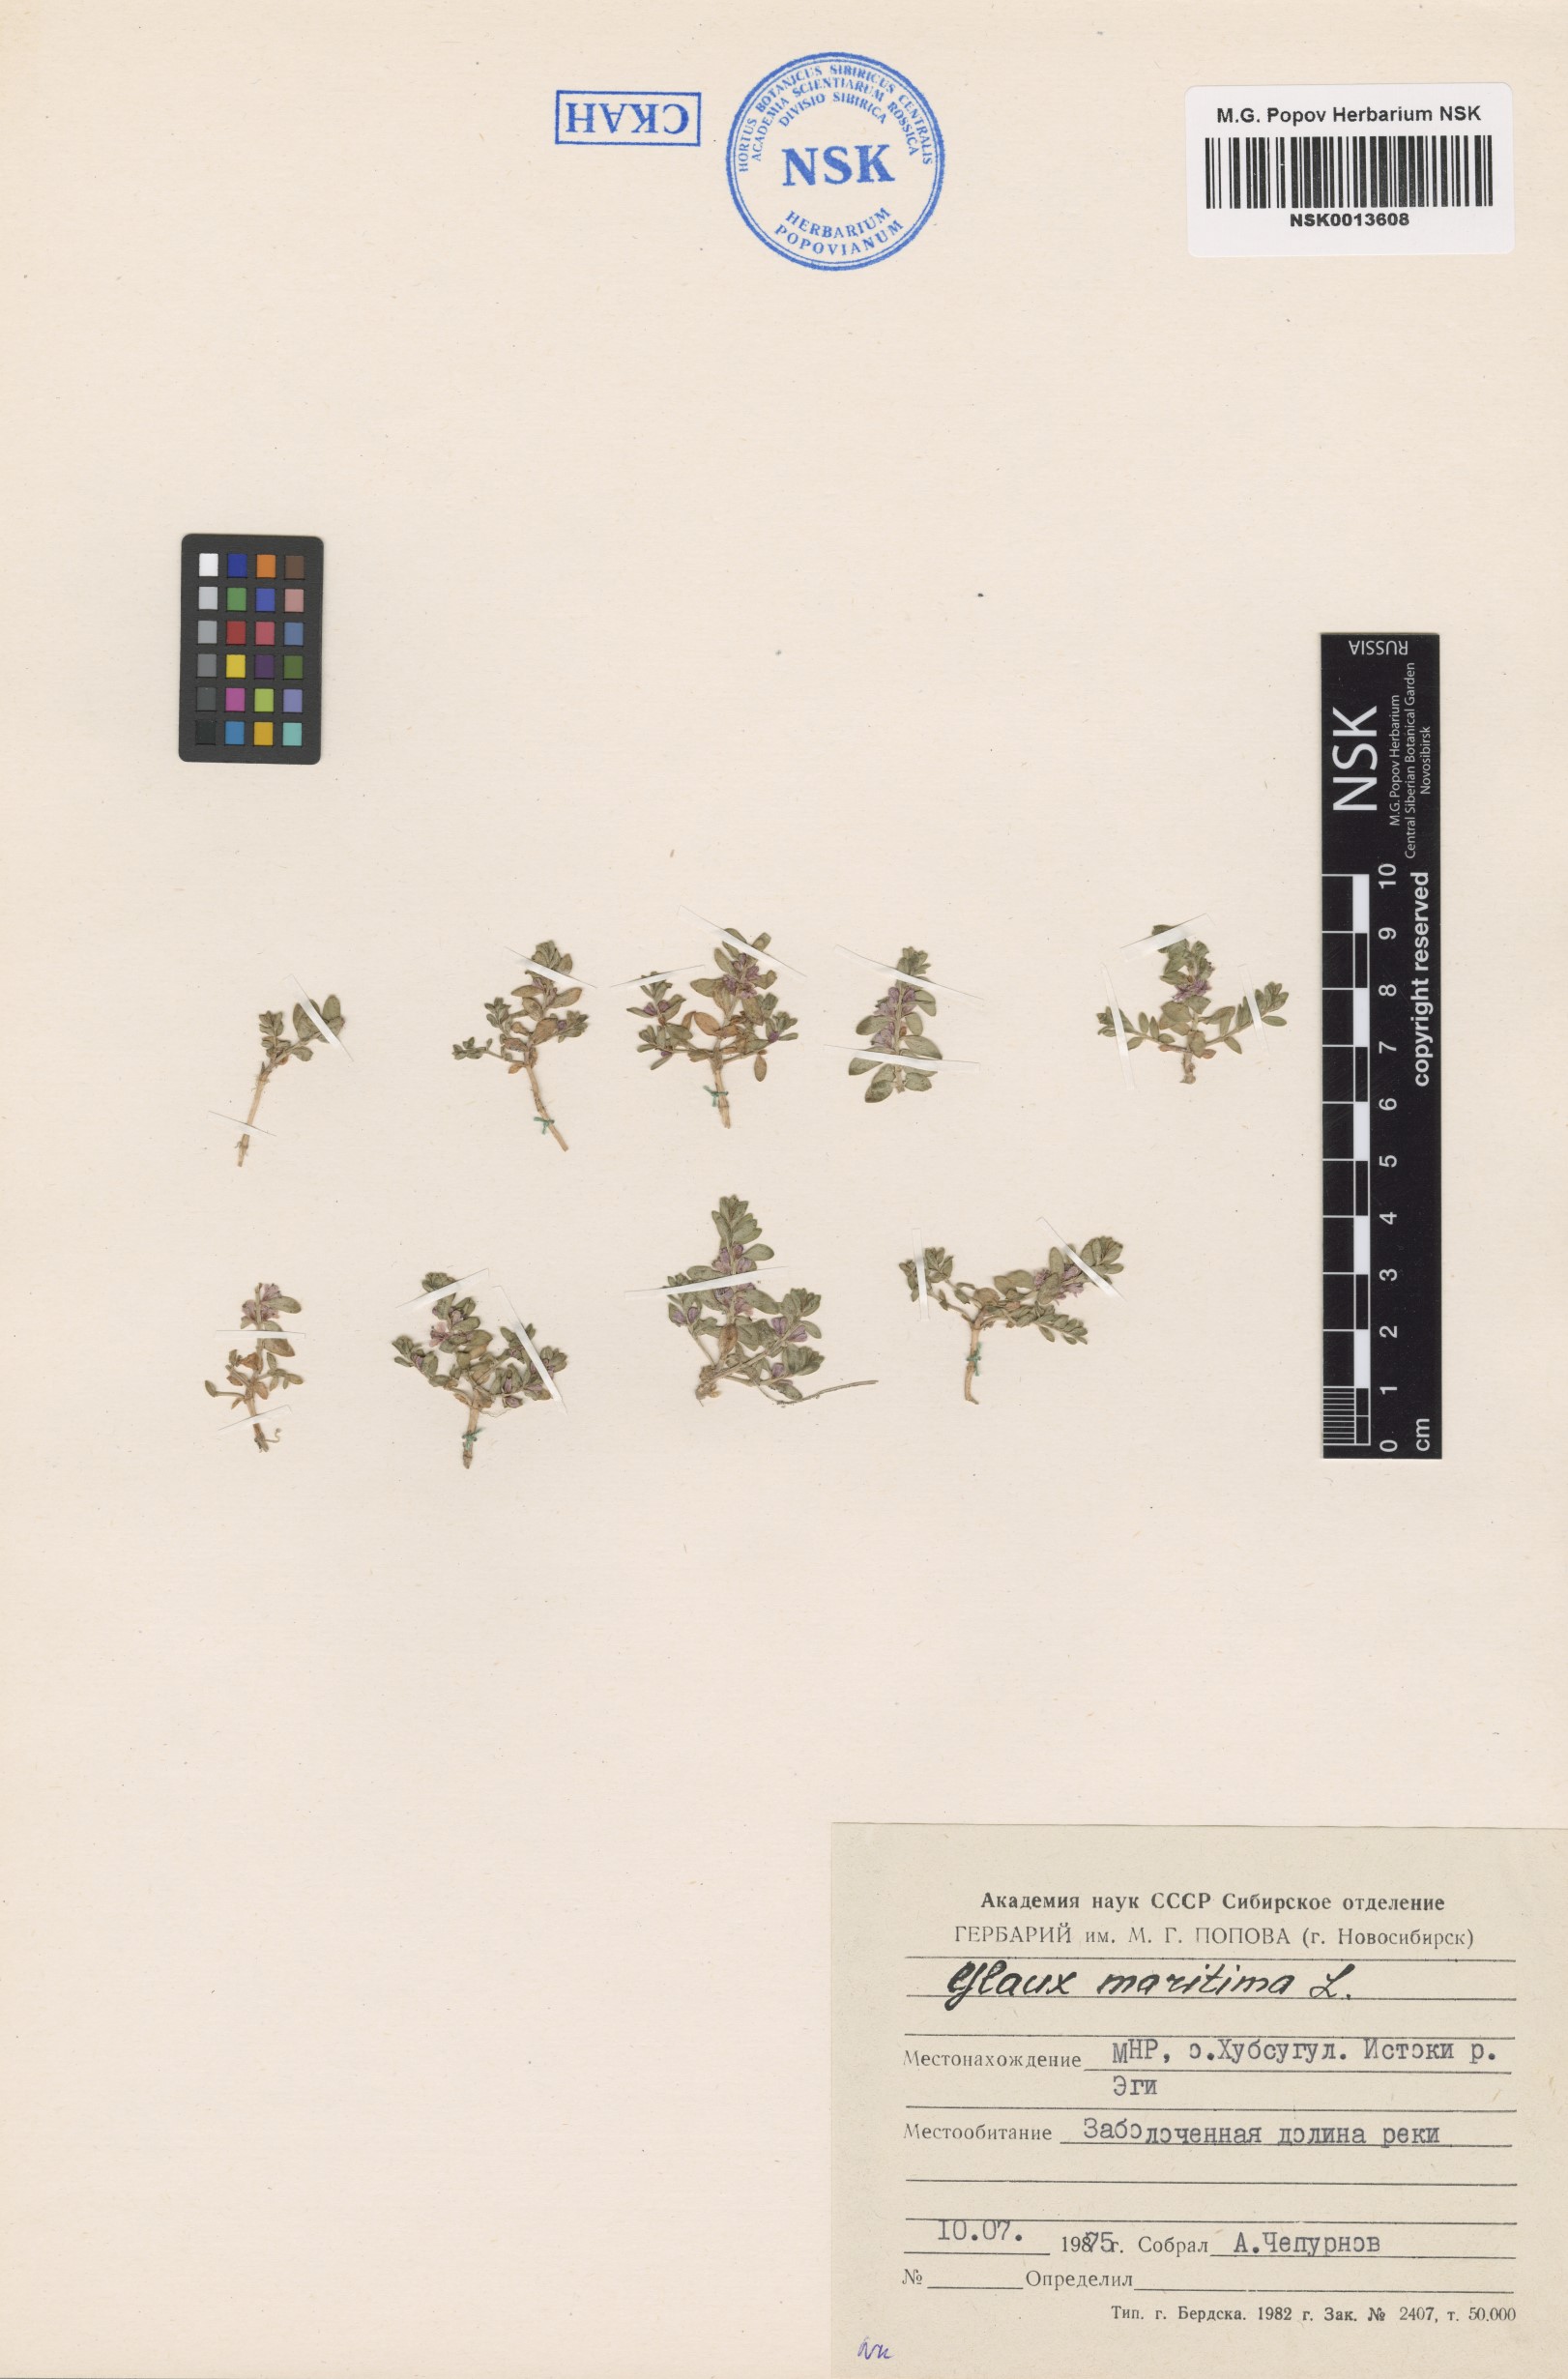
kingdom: Plantae
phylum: Tracheophyta
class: Magnoliopsida
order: Ericales
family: Primulaceae
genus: Lysimachia
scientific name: Lysimachia maritima
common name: Sea milkwort
